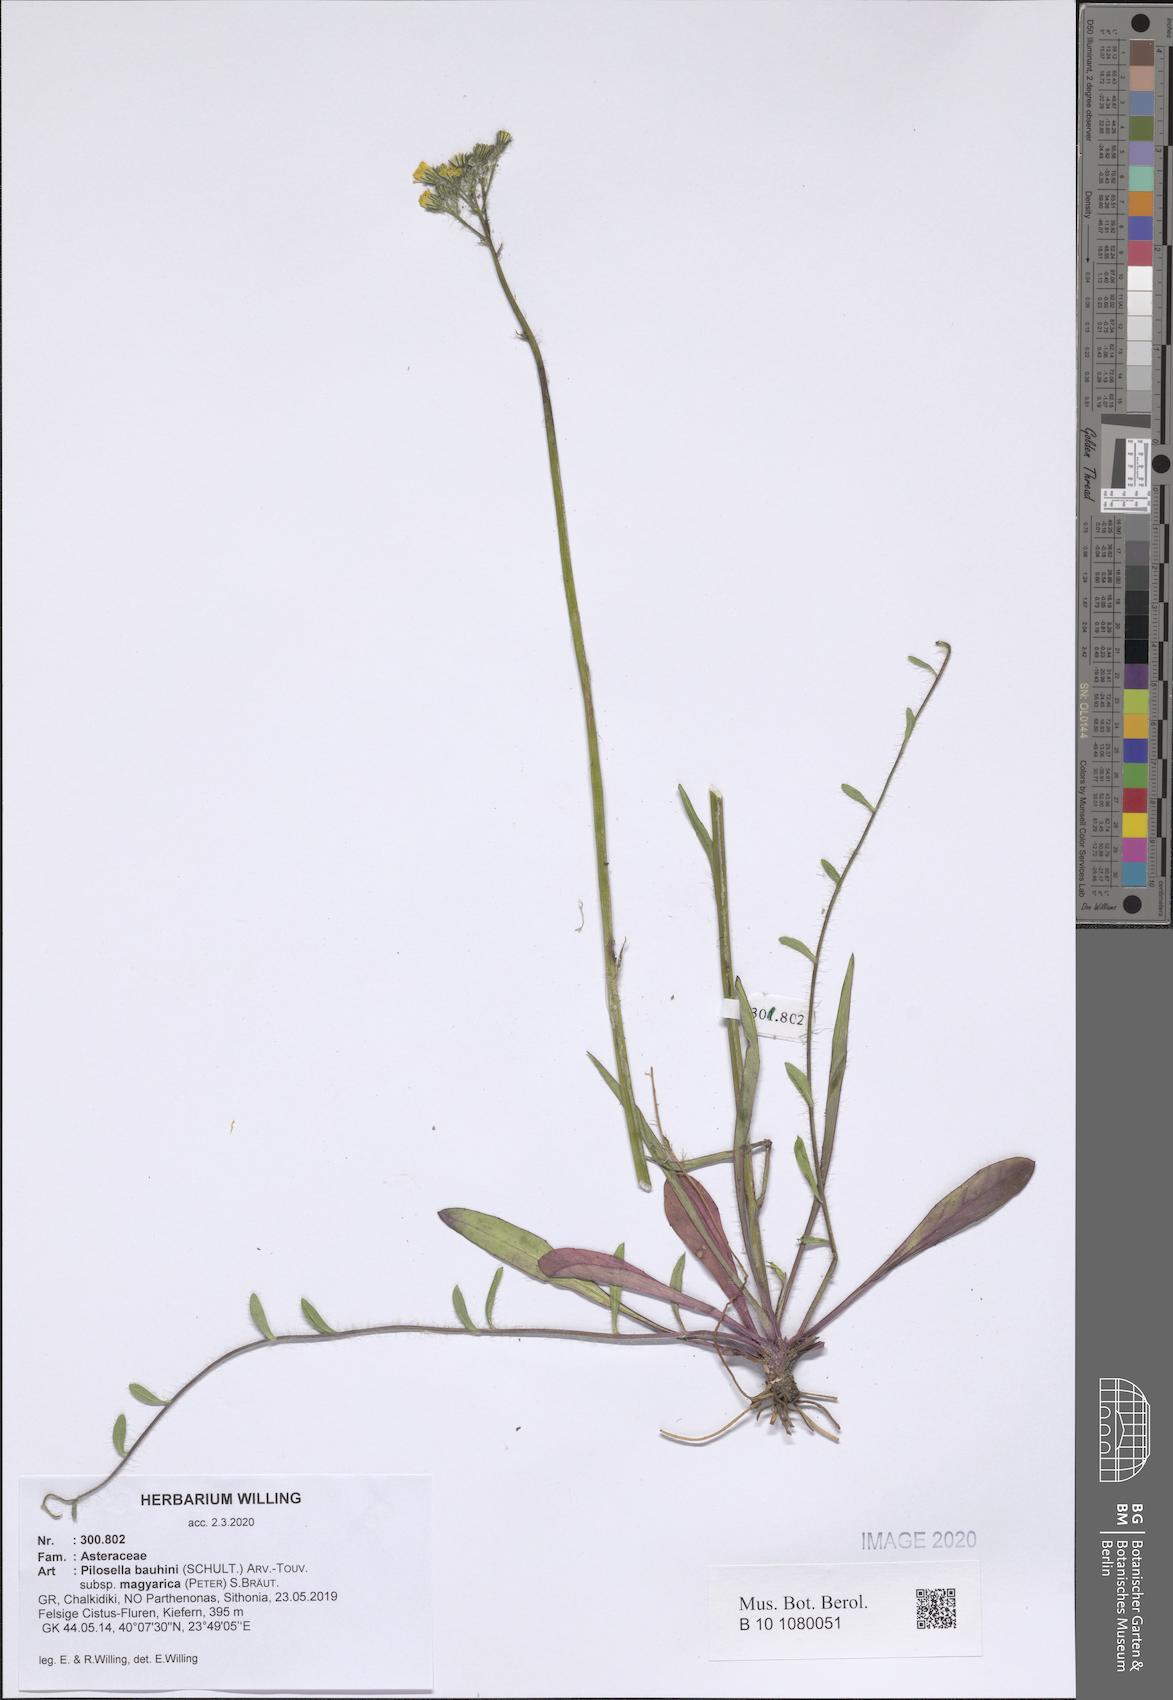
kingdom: Plantae
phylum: Tracheophyta
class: Magnoliopsida
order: Asterales
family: Asteraceae
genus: Pilosella
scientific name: Pilosella bauhini
